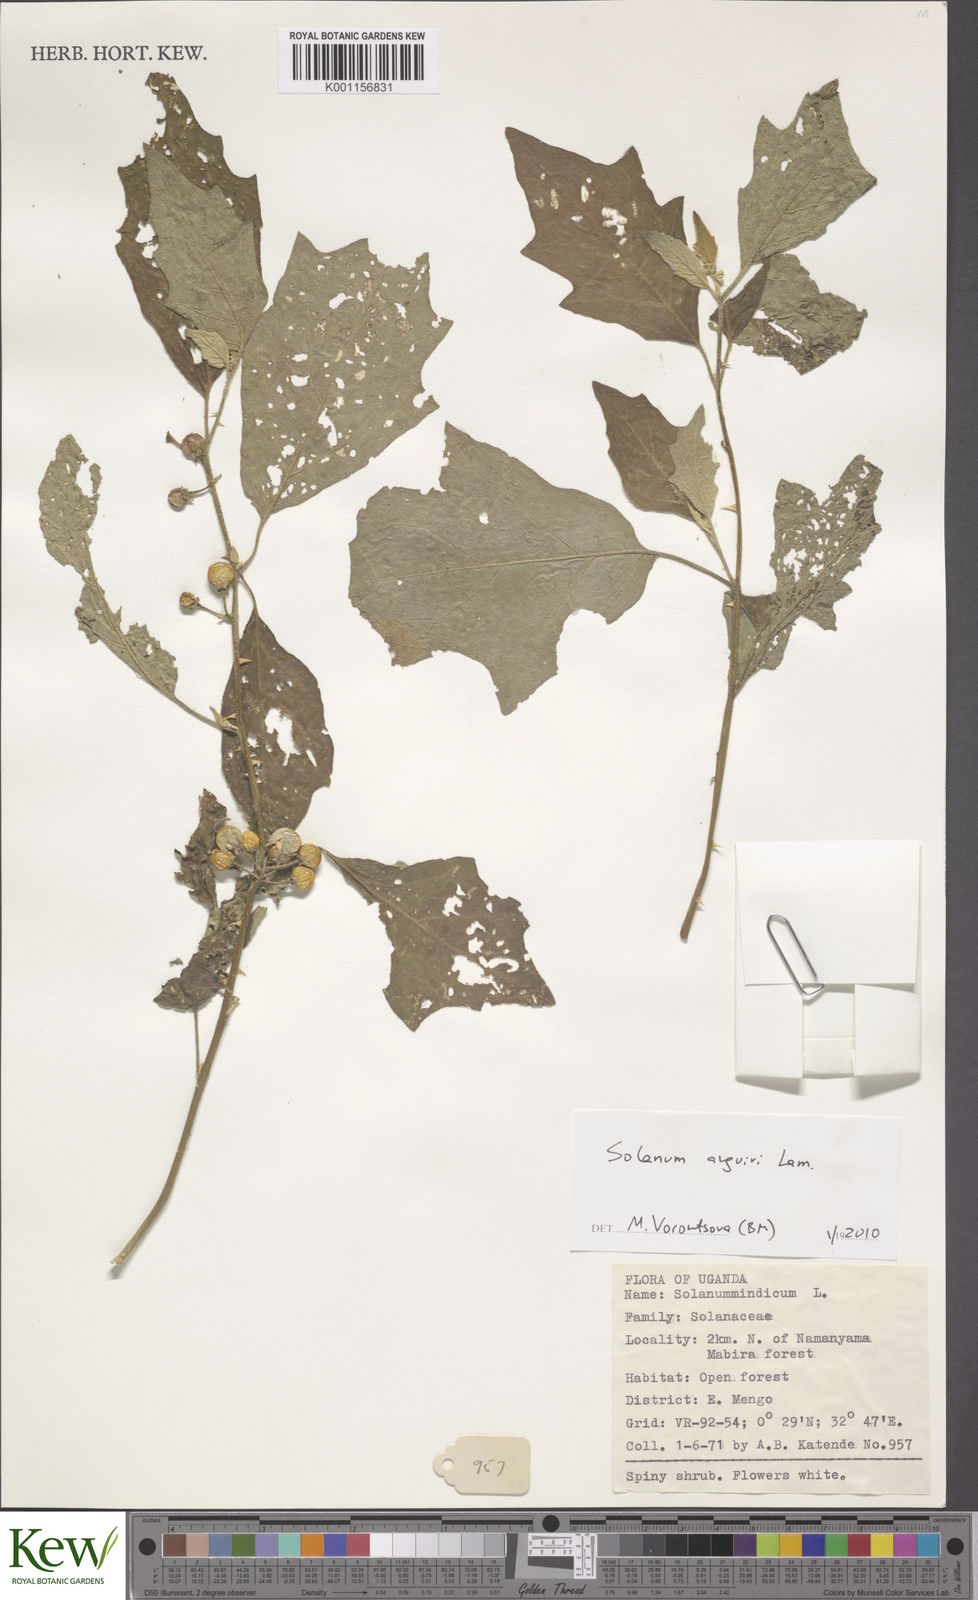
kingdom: Plantae
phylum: Tracheophyta
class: Magnoliopsida
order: Solanales
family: Solanaceae
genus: Solanum
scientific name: Solanum anguivi
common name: Forest bitterberry
